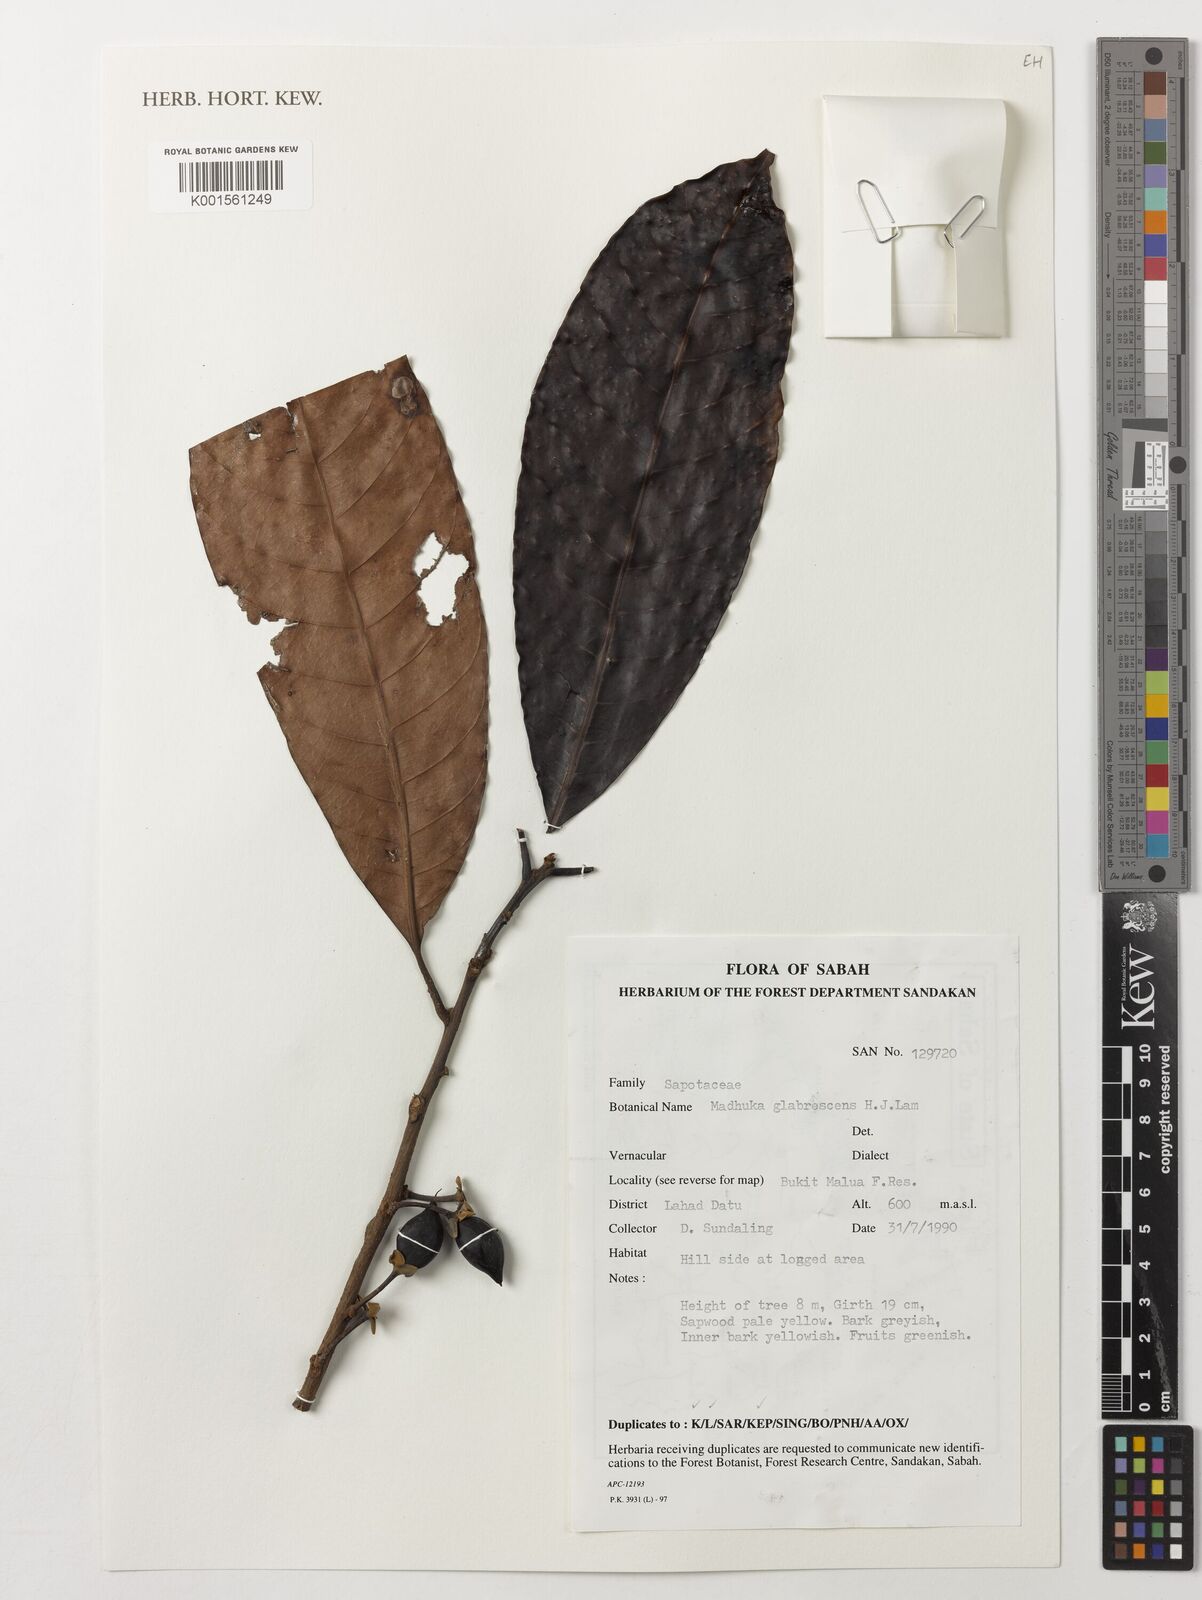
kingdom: Plantae
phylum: Tracheophyta
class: Magnoliopsida
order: Ericales
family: Sapotaceae
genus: Madhuca
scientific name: Madhuca glabrescens
